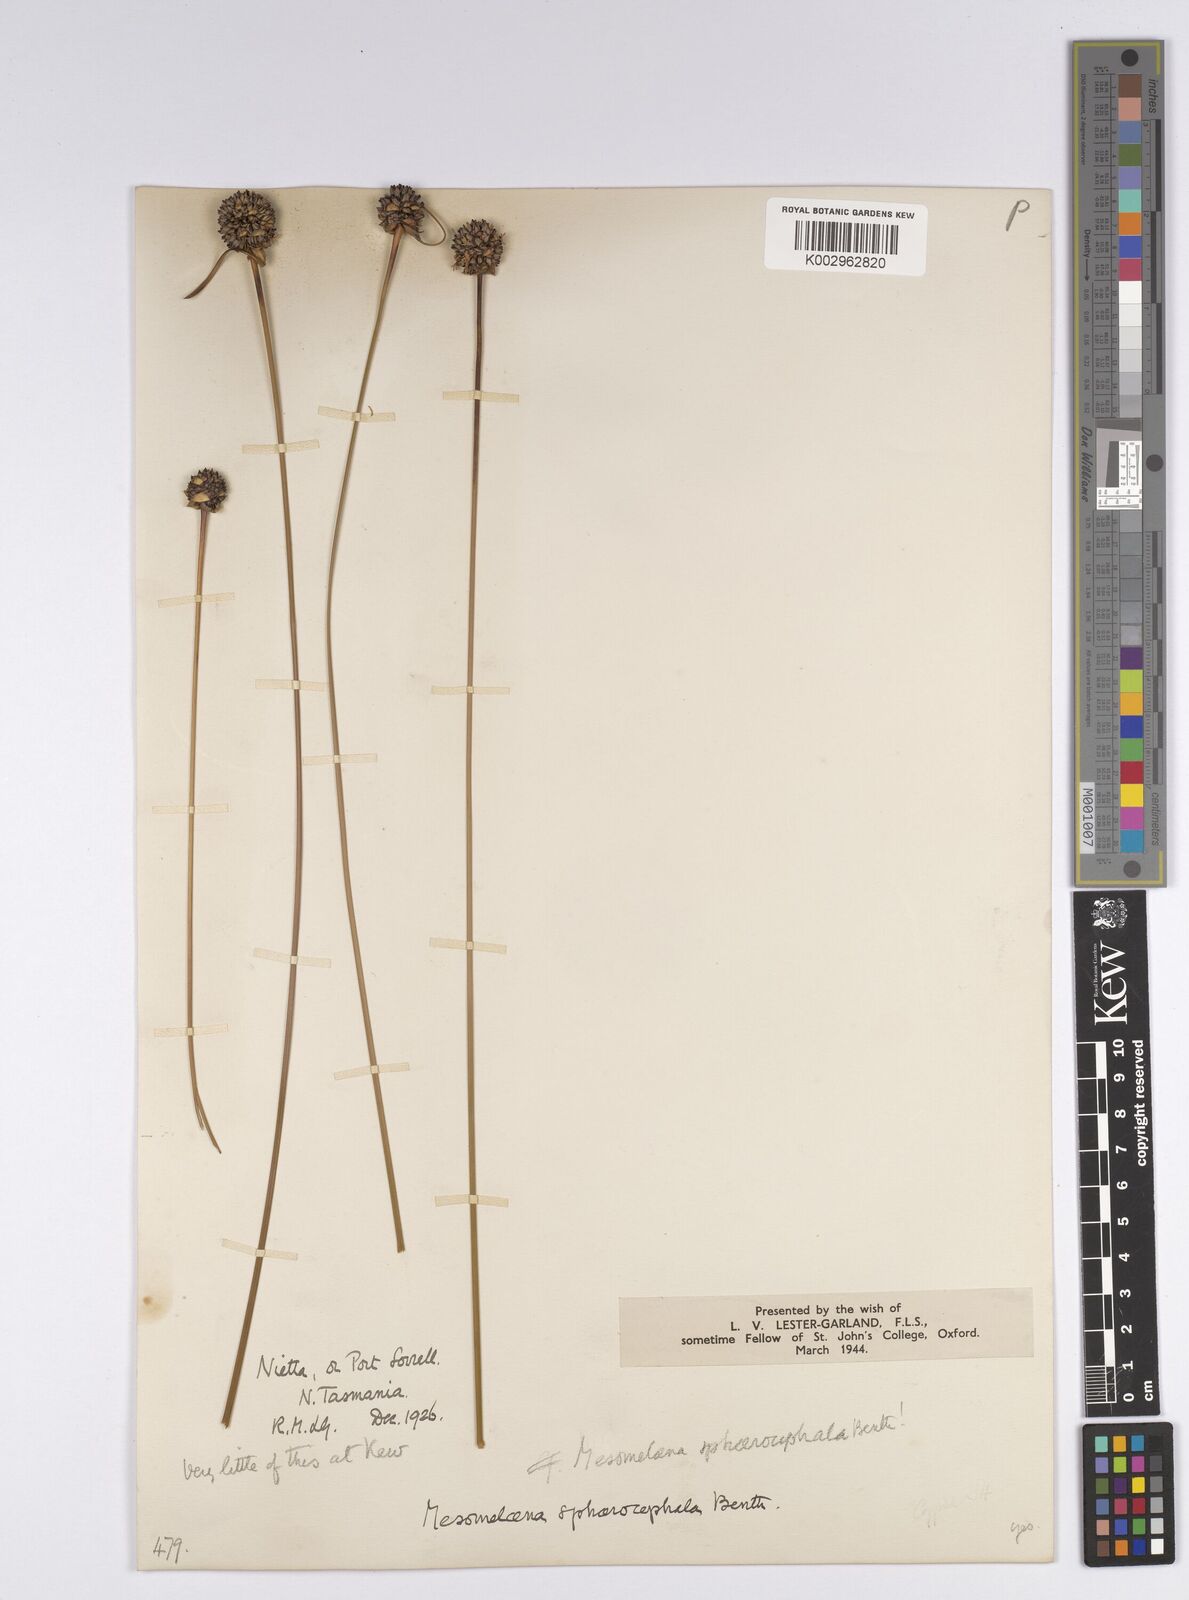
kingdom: Plantae
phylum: Tracheophyta
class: Liliopsida
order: Poales
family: Cyperaceae
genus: Gymnoschoenus
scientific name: Gymnoschoenus sphaerocephalus
